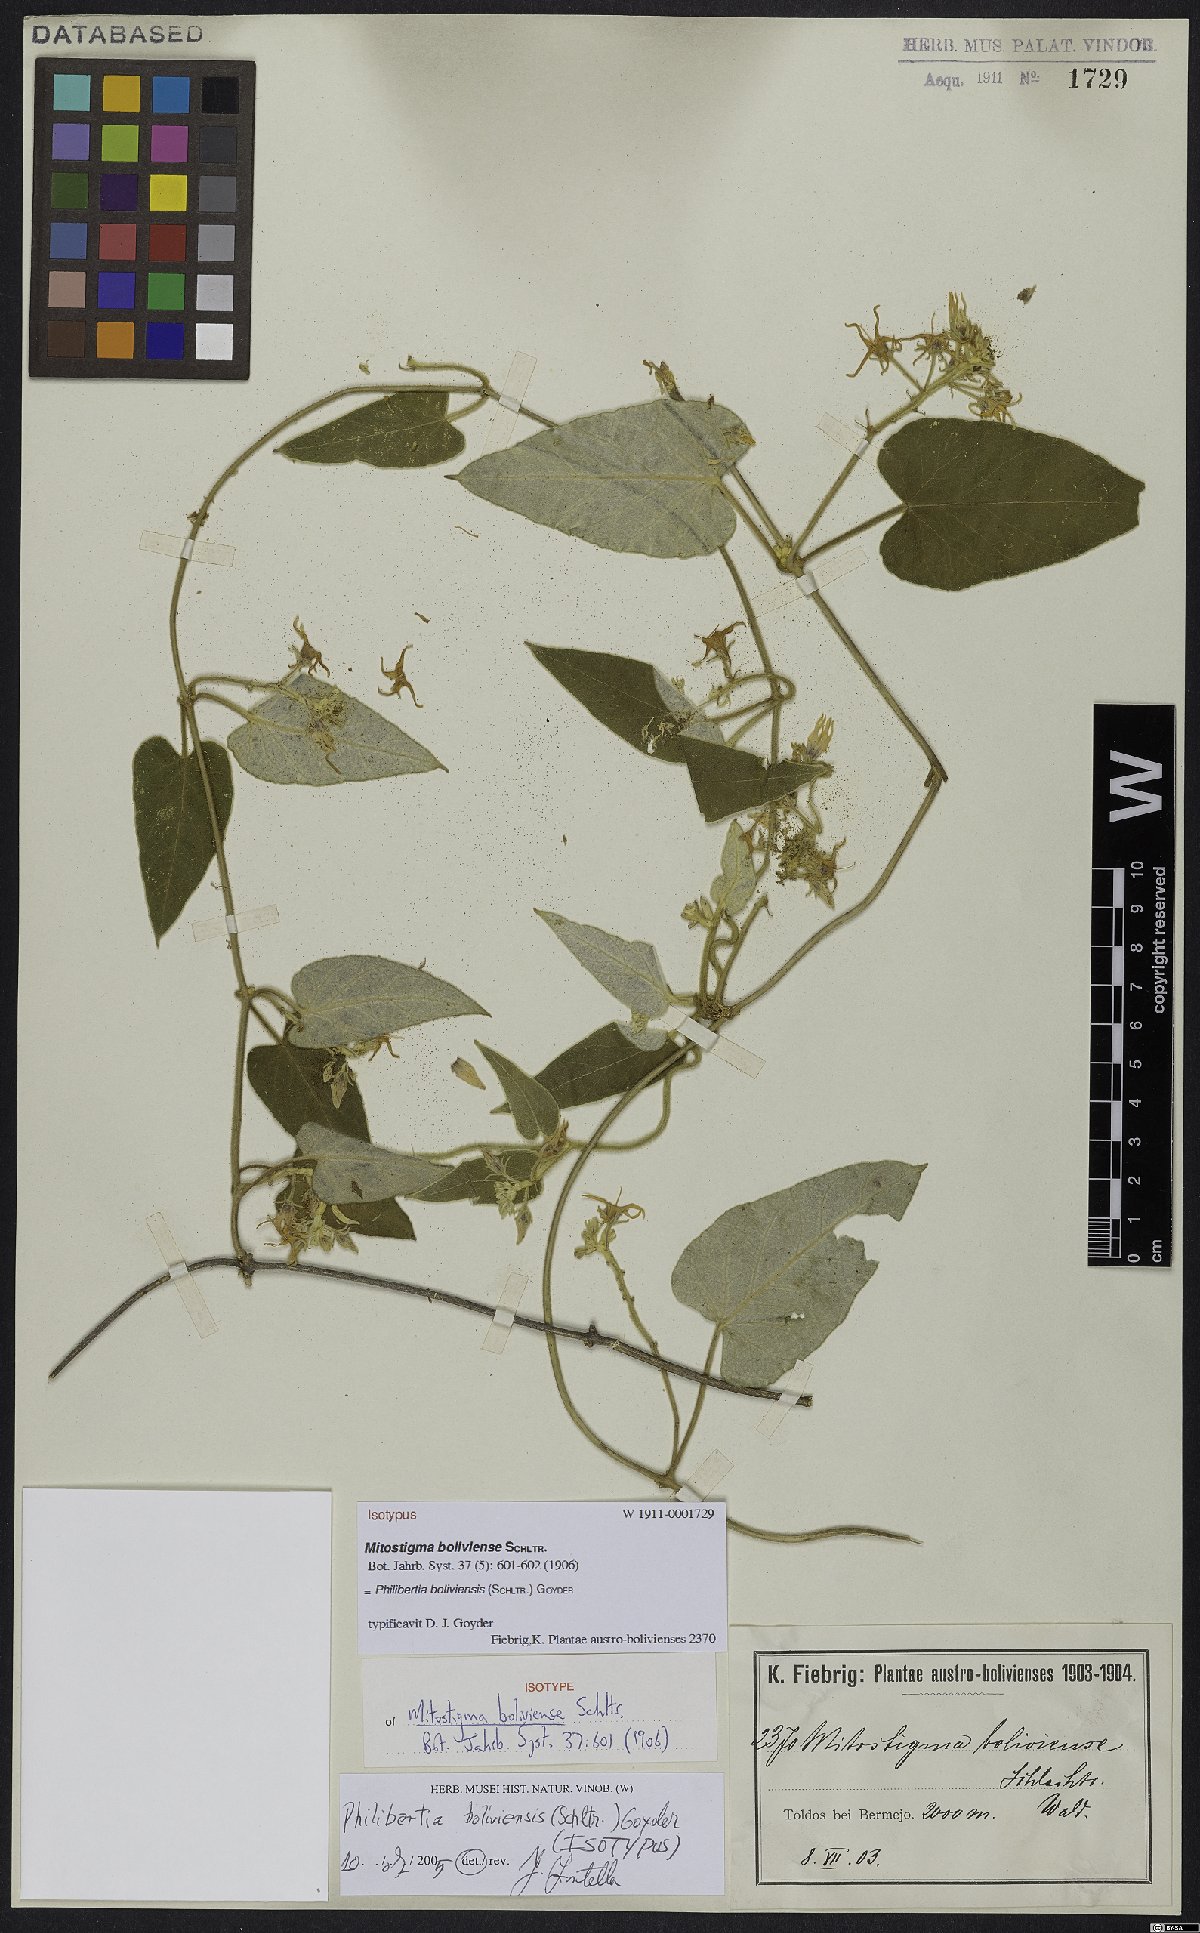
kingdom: Plantae
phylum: Tracheophyta
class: Magnoliopsida
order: Gentianales
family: Apocynaceae
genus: Philibertia
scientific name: Philibertia boliviensis
